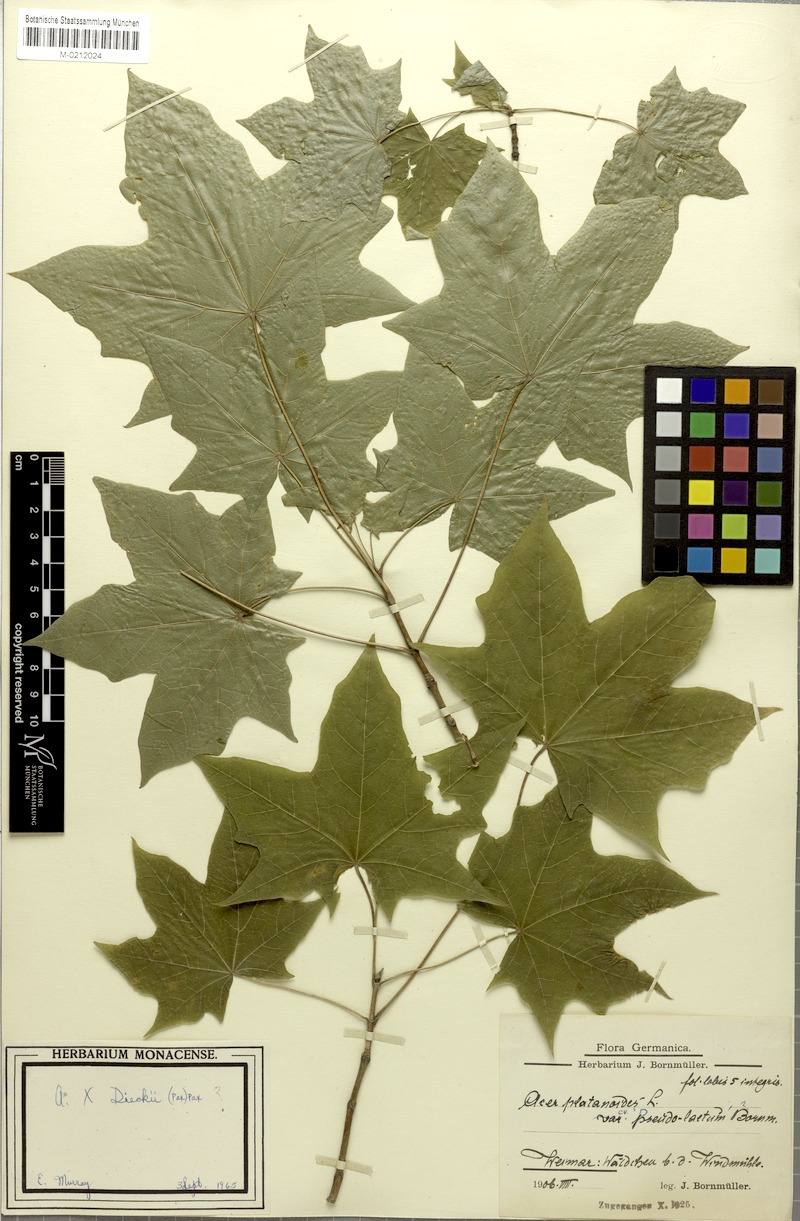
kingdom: Plantae
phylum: Tracheophyta
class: Magnoliopsida
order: Sapindales
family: Sapindaceae
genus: Acer
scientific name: Acer platanoides
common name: Norway maple
